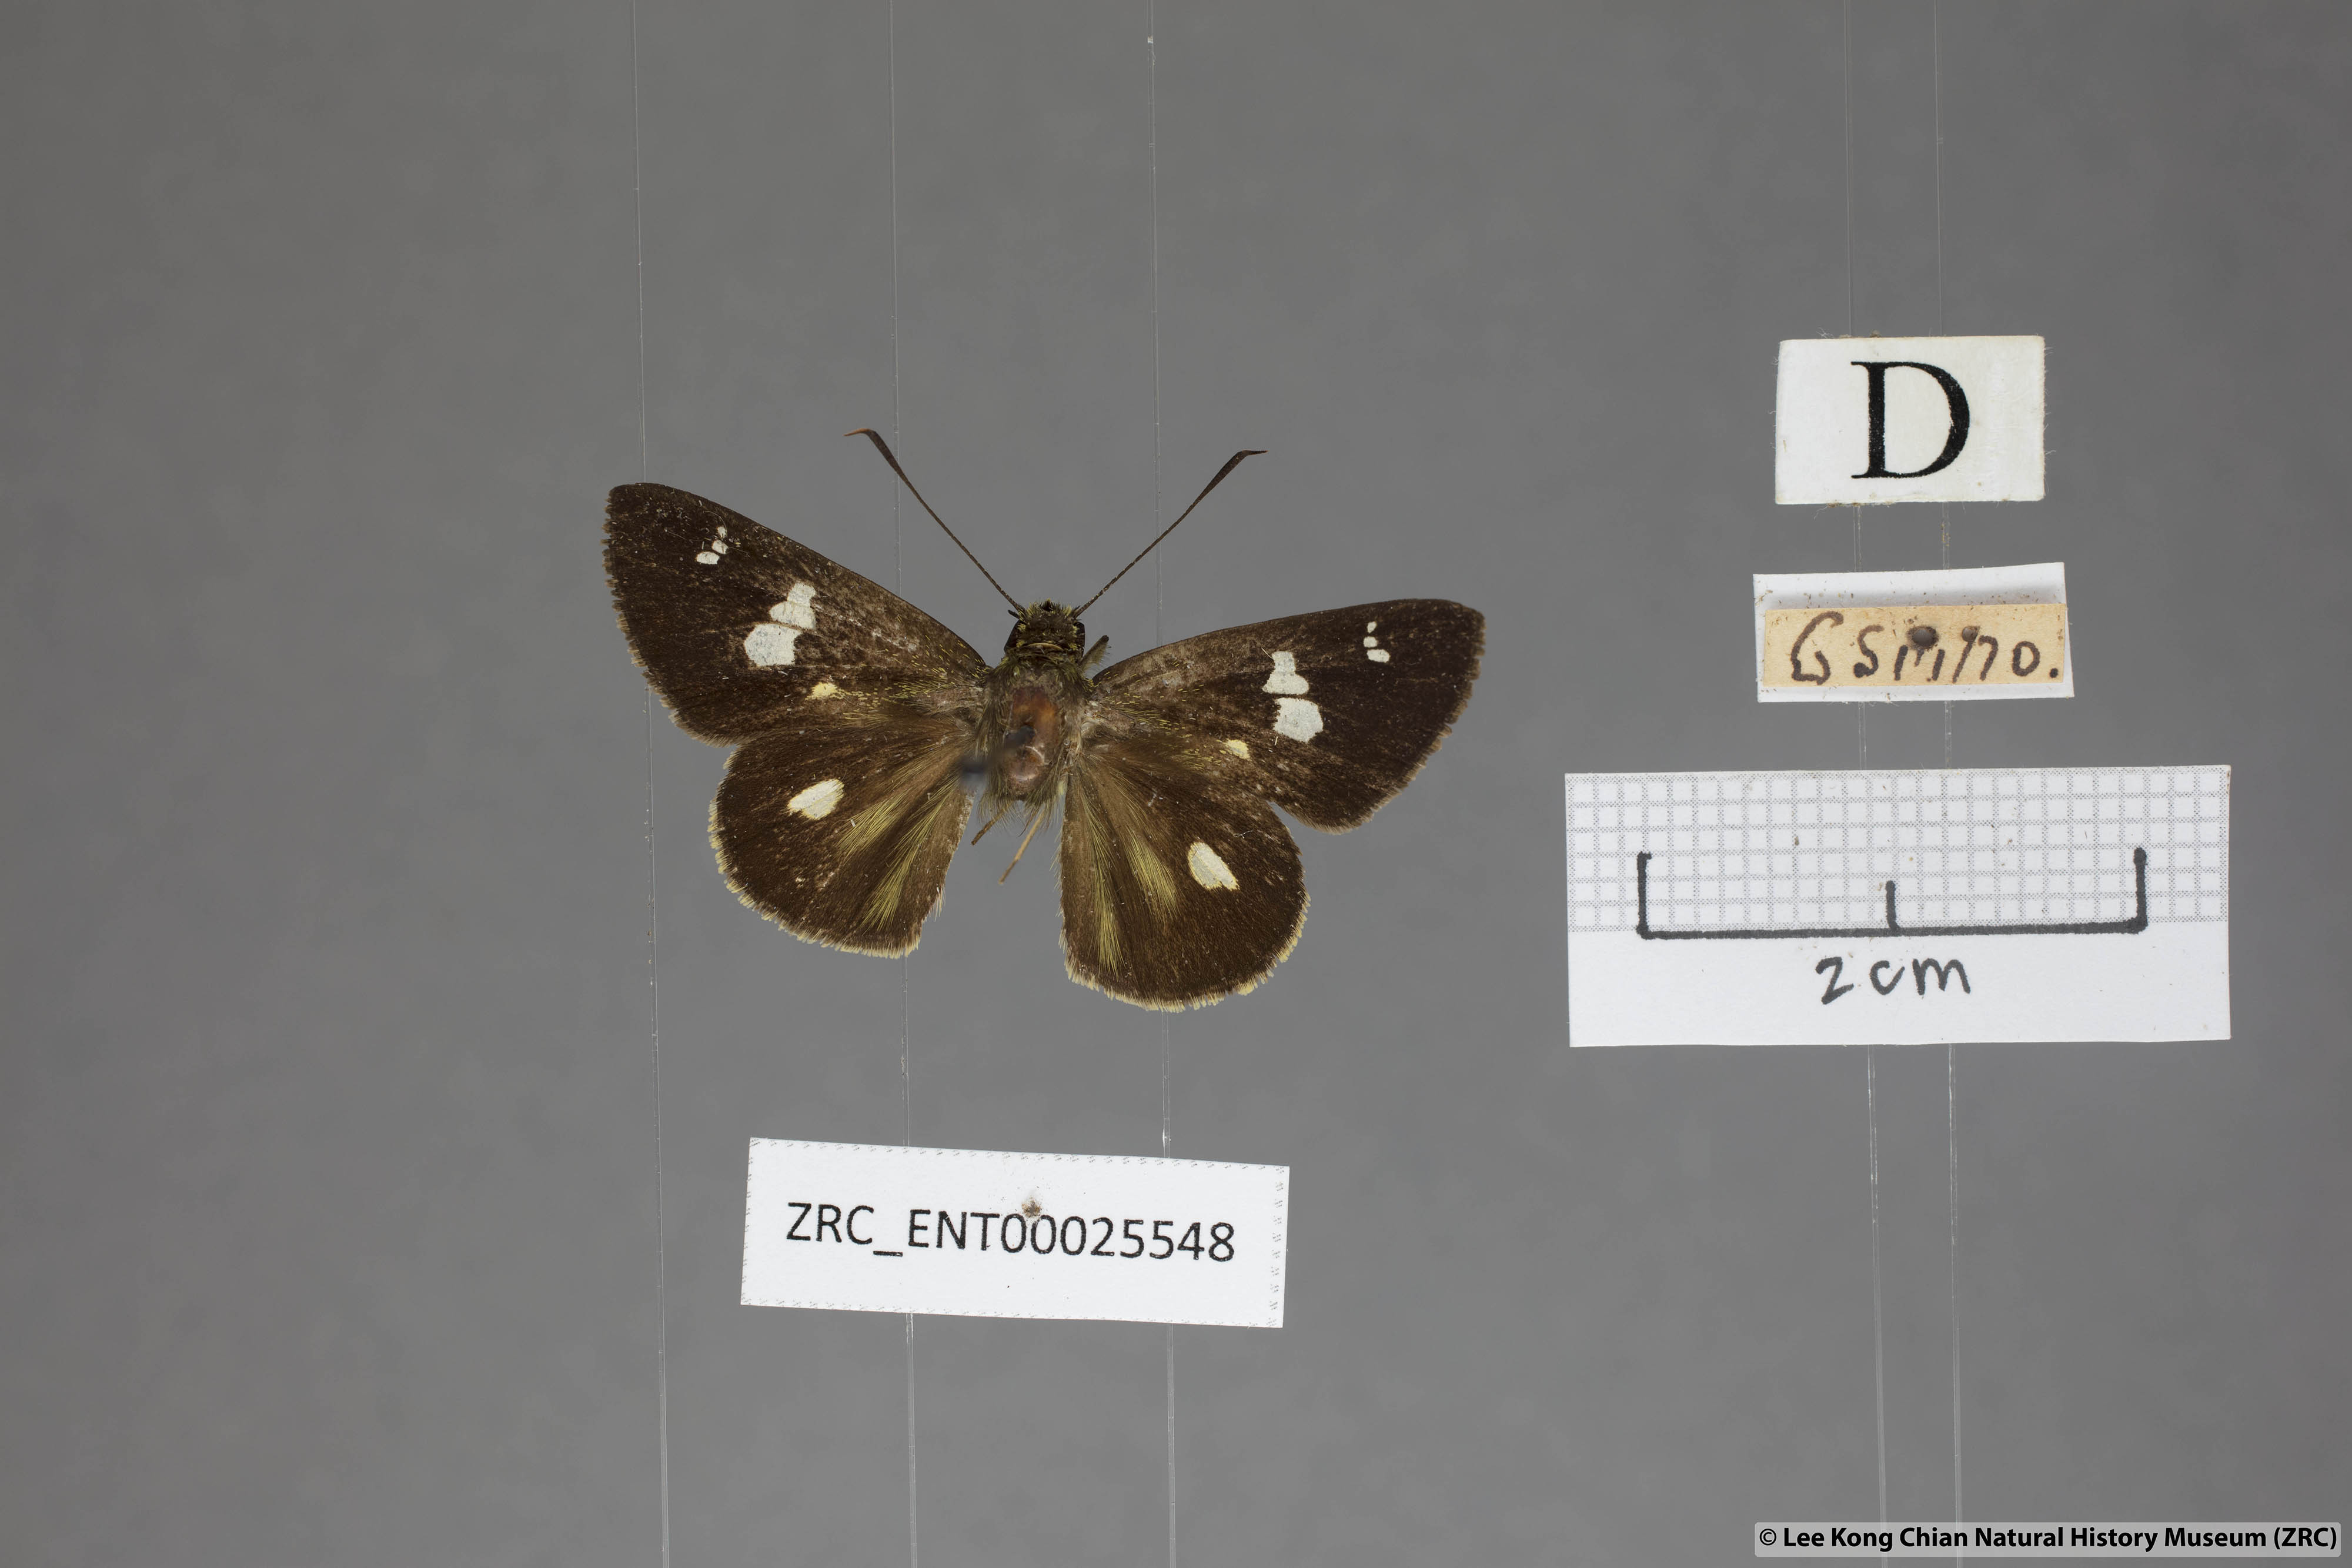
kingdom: Animalia
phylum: Arthropoda
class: Insecta
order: Lepidoptera
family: Hesperiidae
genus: Scobura
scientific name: Scobura phiditia
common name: Malay forest bob
